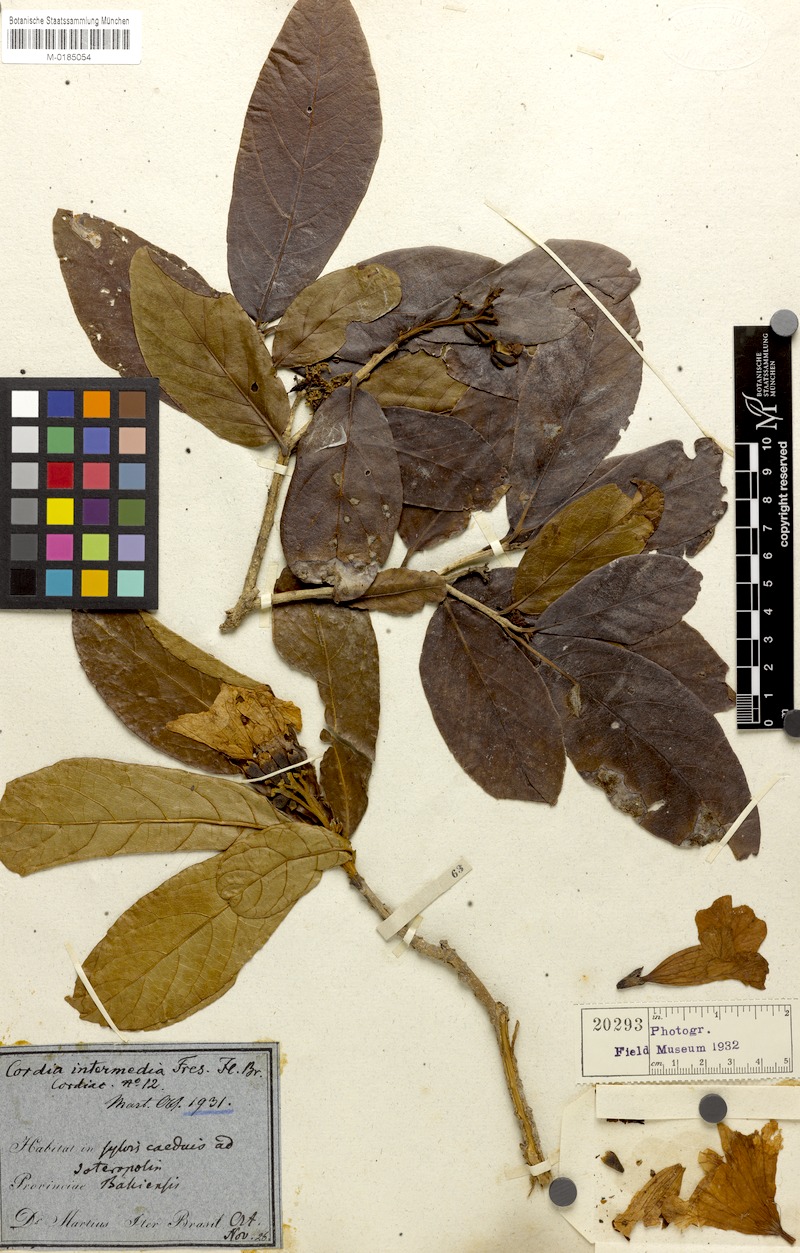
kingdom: Plantae
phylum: Tracheophyta
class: Magnoliopsida
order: Boraginales
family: Cordiaceae
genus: Cordia
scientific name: Cordia intermedia
